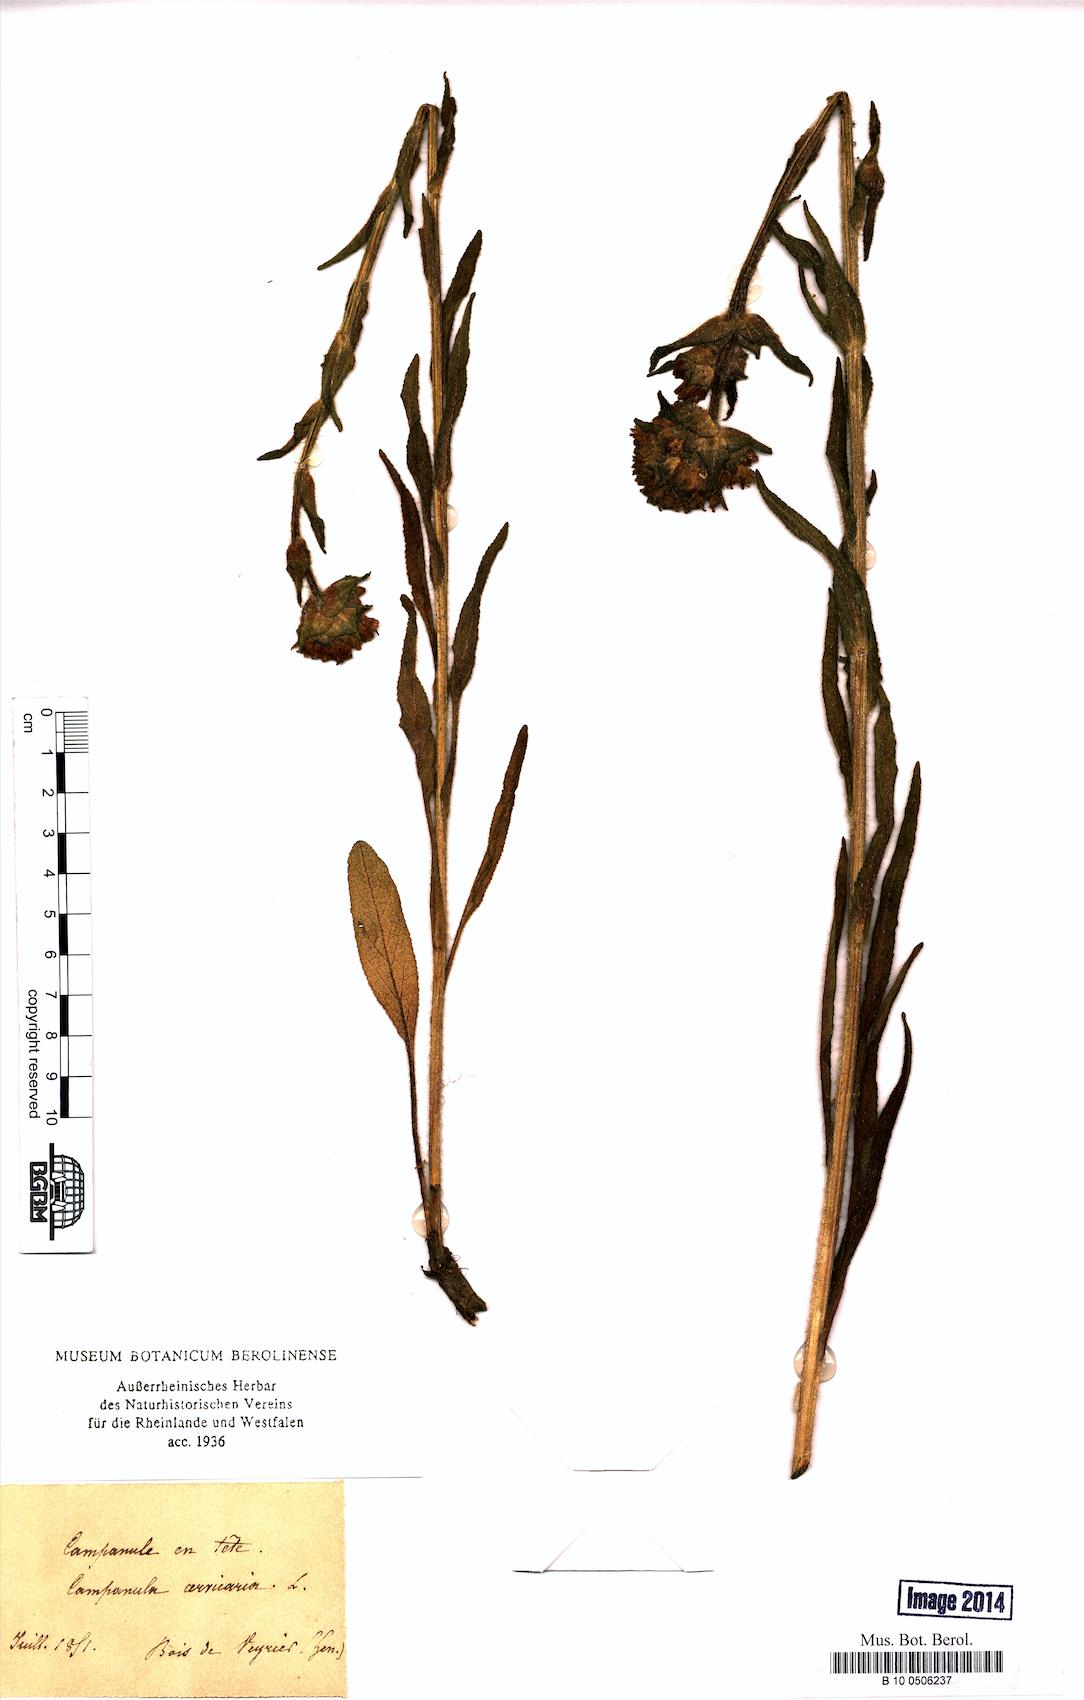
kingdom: Plantae
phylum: Tracheophyta
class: Magnoliopsida
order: Asterales
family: Campanulaceae
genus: Campanula
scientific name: Campanula cervicaria
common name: Bristly bellflower
